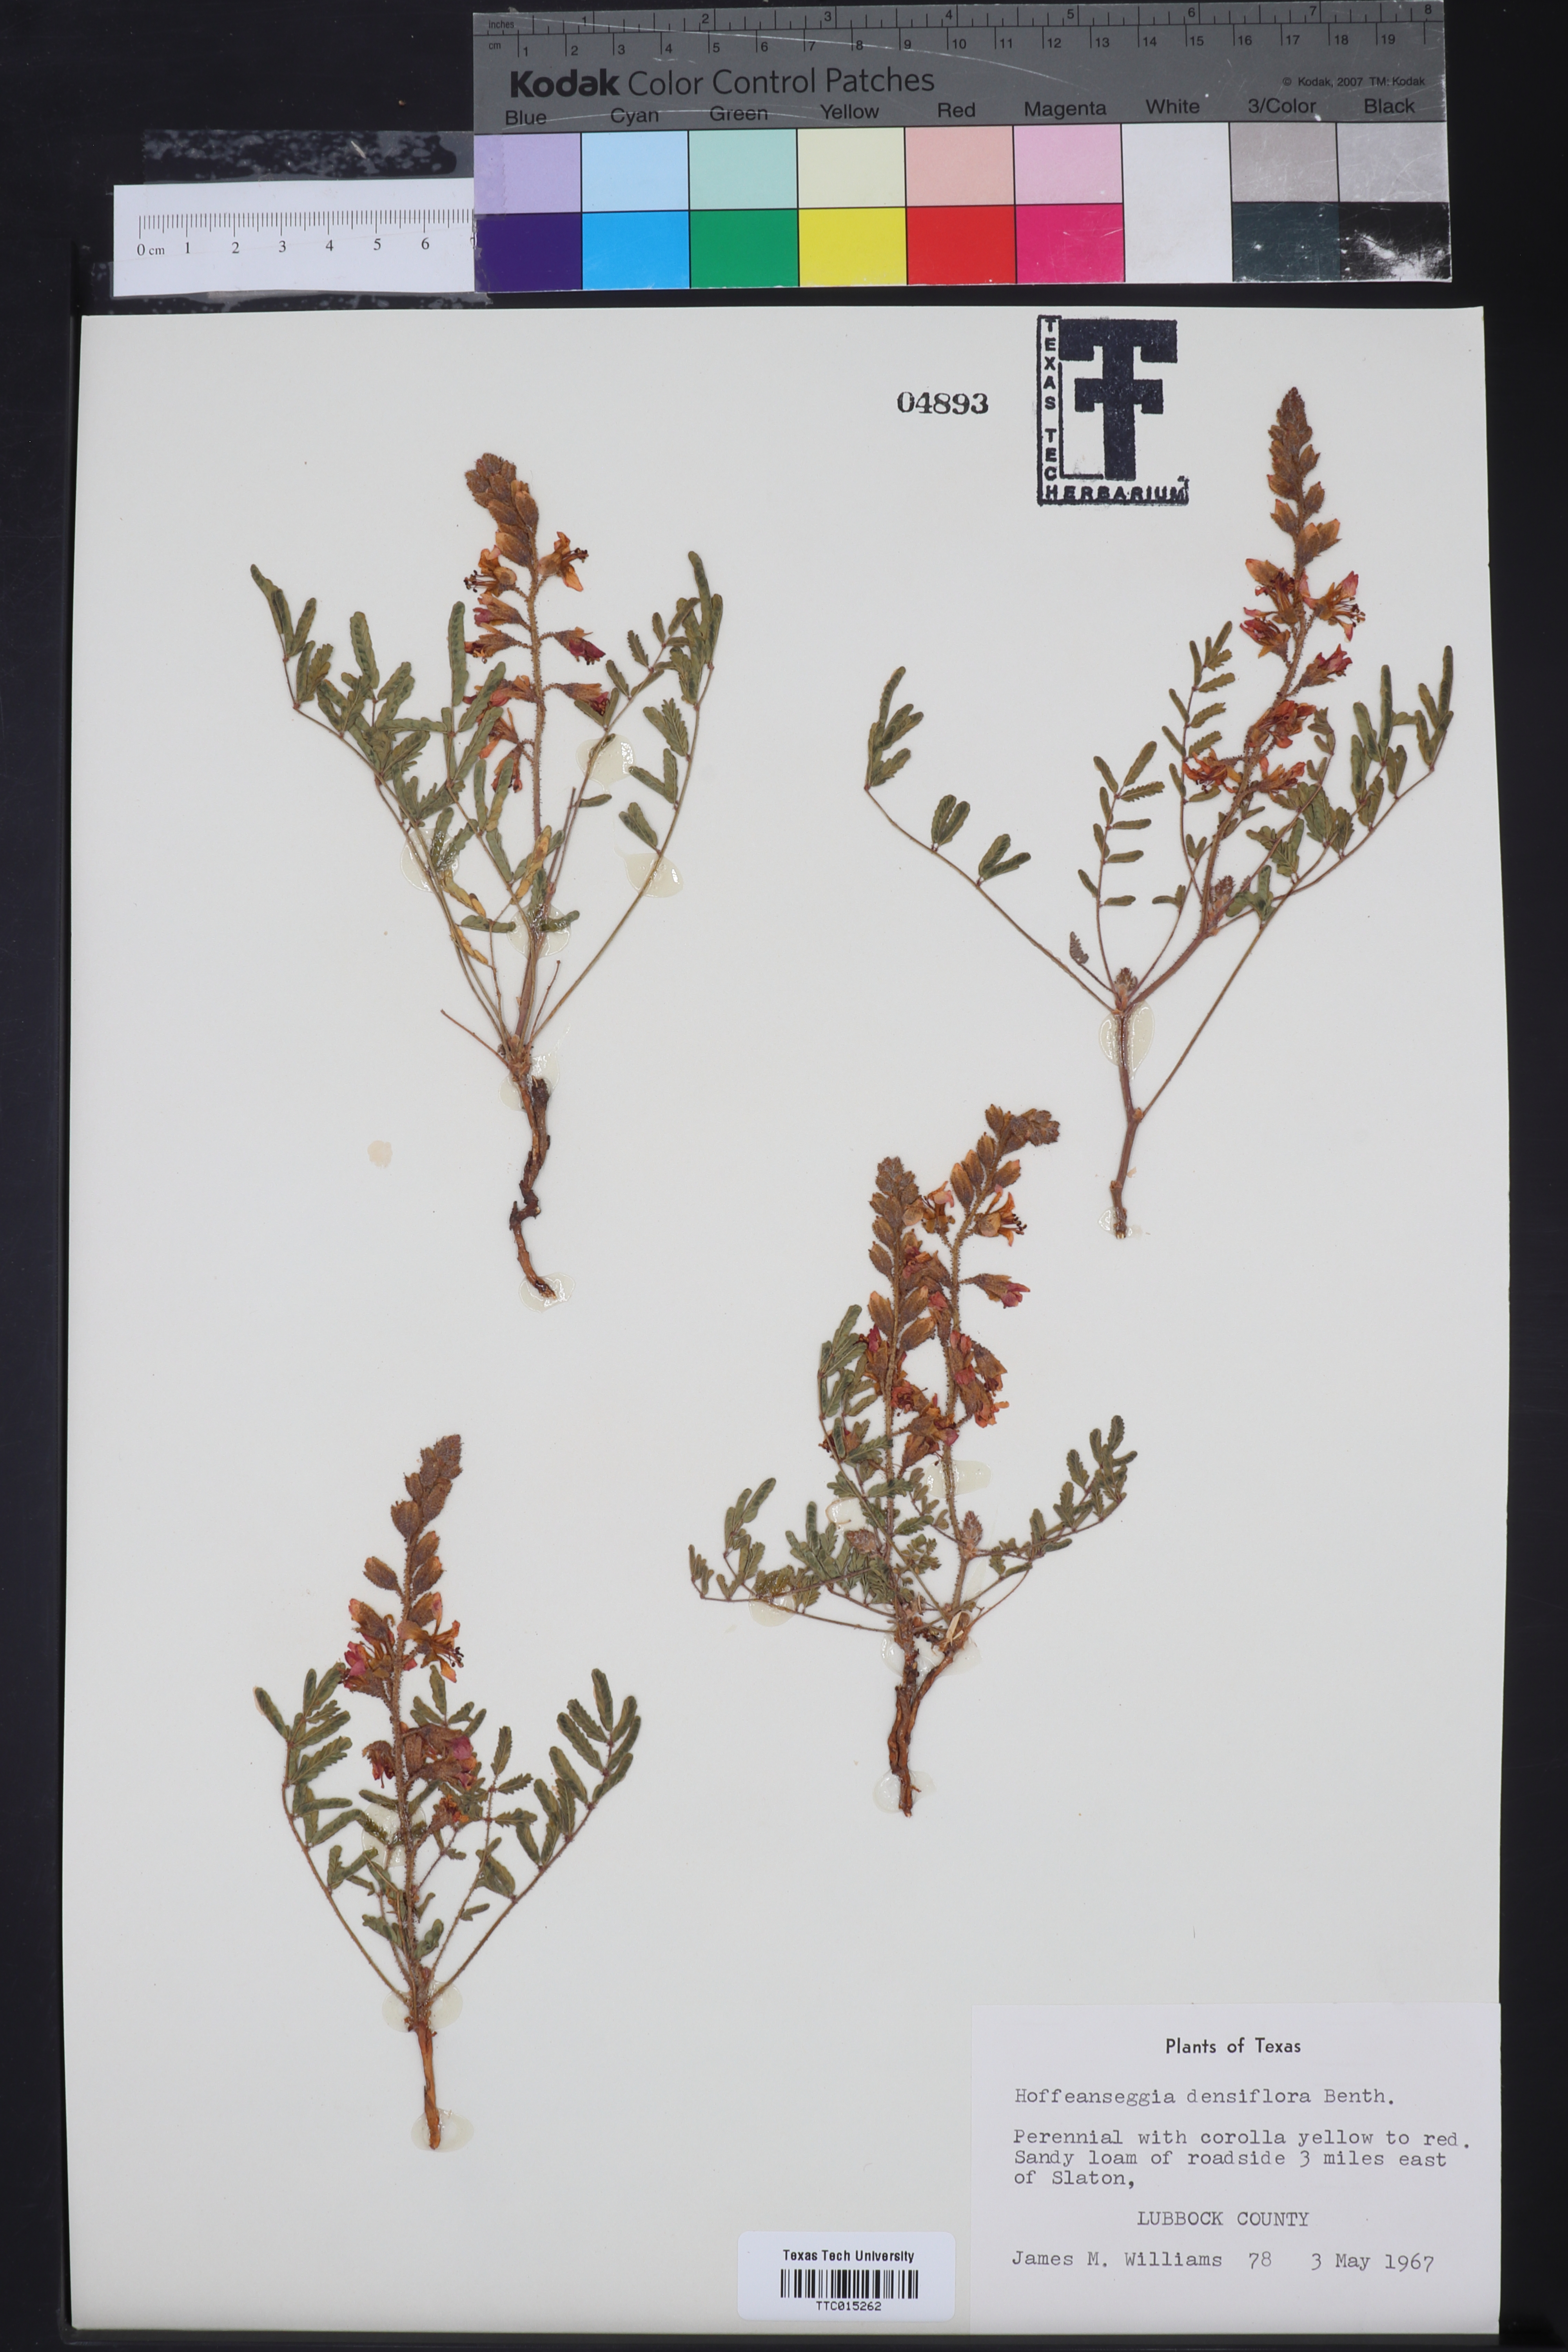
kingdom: Plantae
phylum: Tracheophyta
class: Magnoliopsida
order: Fabales
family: Fabaceae
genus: Hoffmannseggia
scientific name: Hoffmannseggia glauca
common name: Pignut
